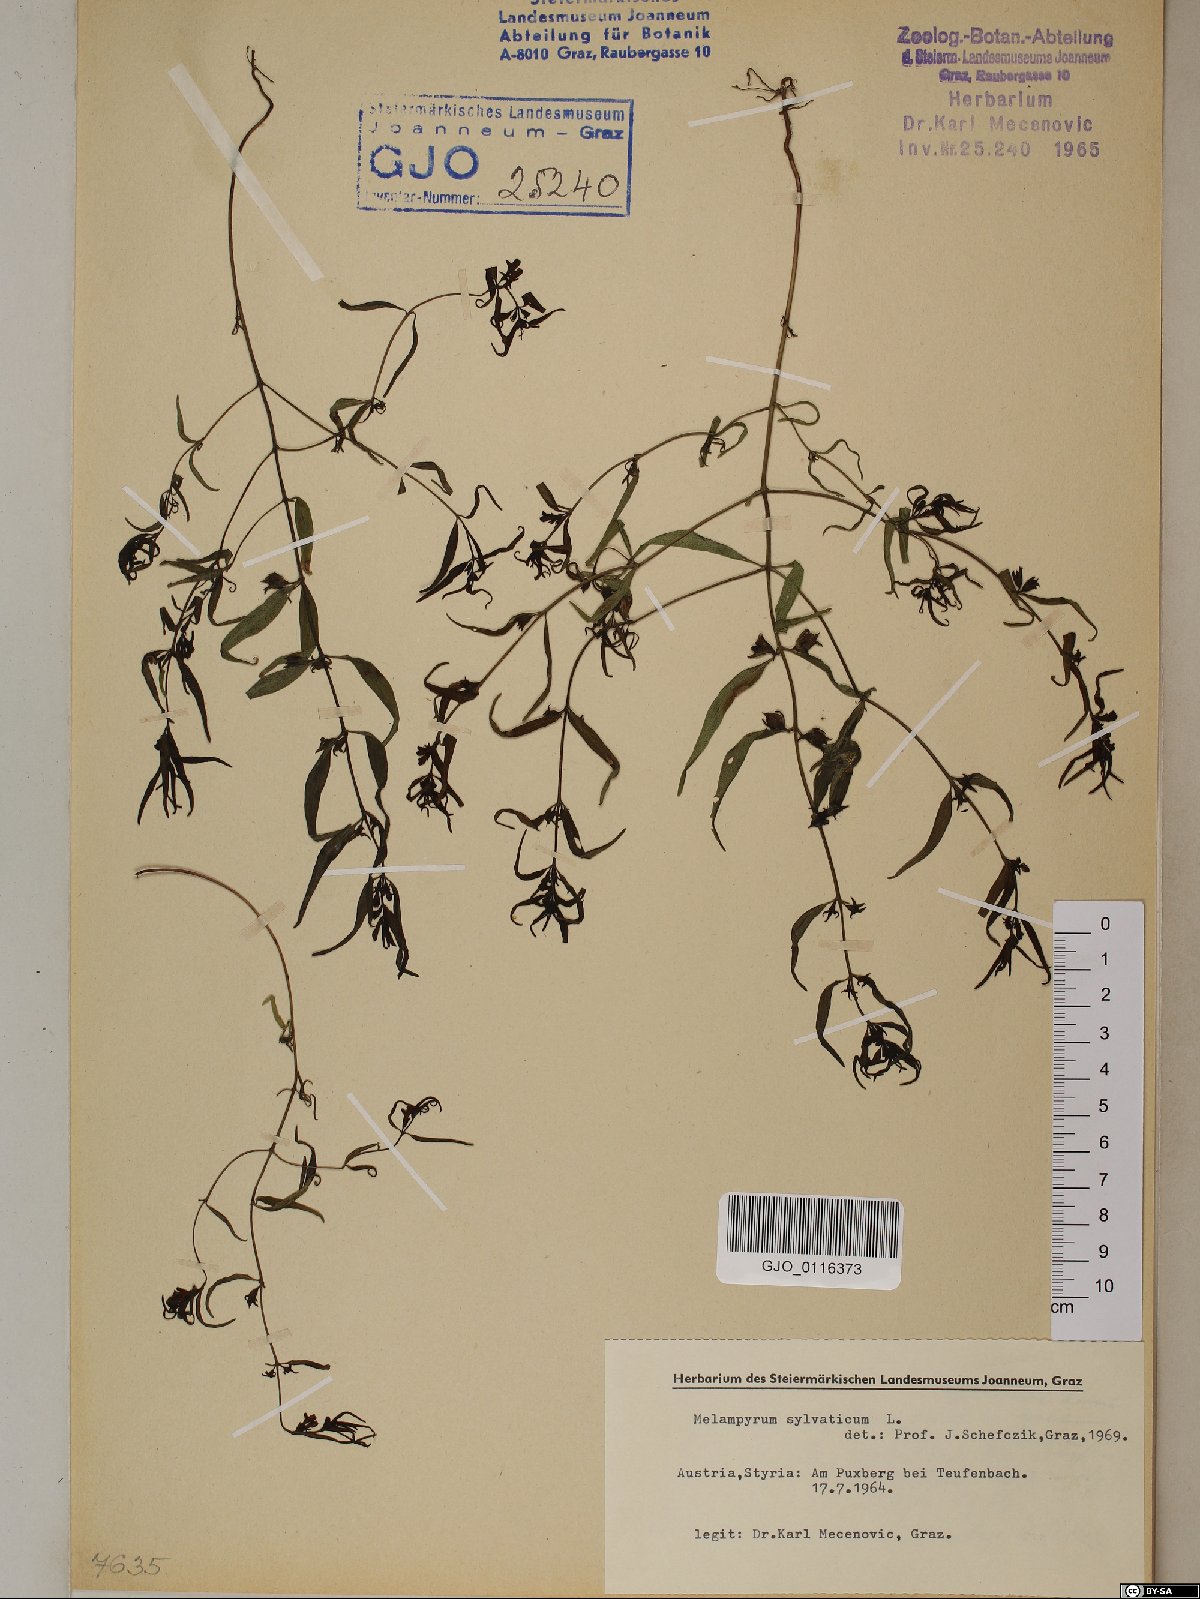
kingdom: Plantae
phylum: Tracheophyta
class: Magnoliopsida
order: Lamiales
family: Orobanchaceae
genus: Melampyrum
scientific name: Melampyrum sylvaticum
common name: Small cow-wheat
